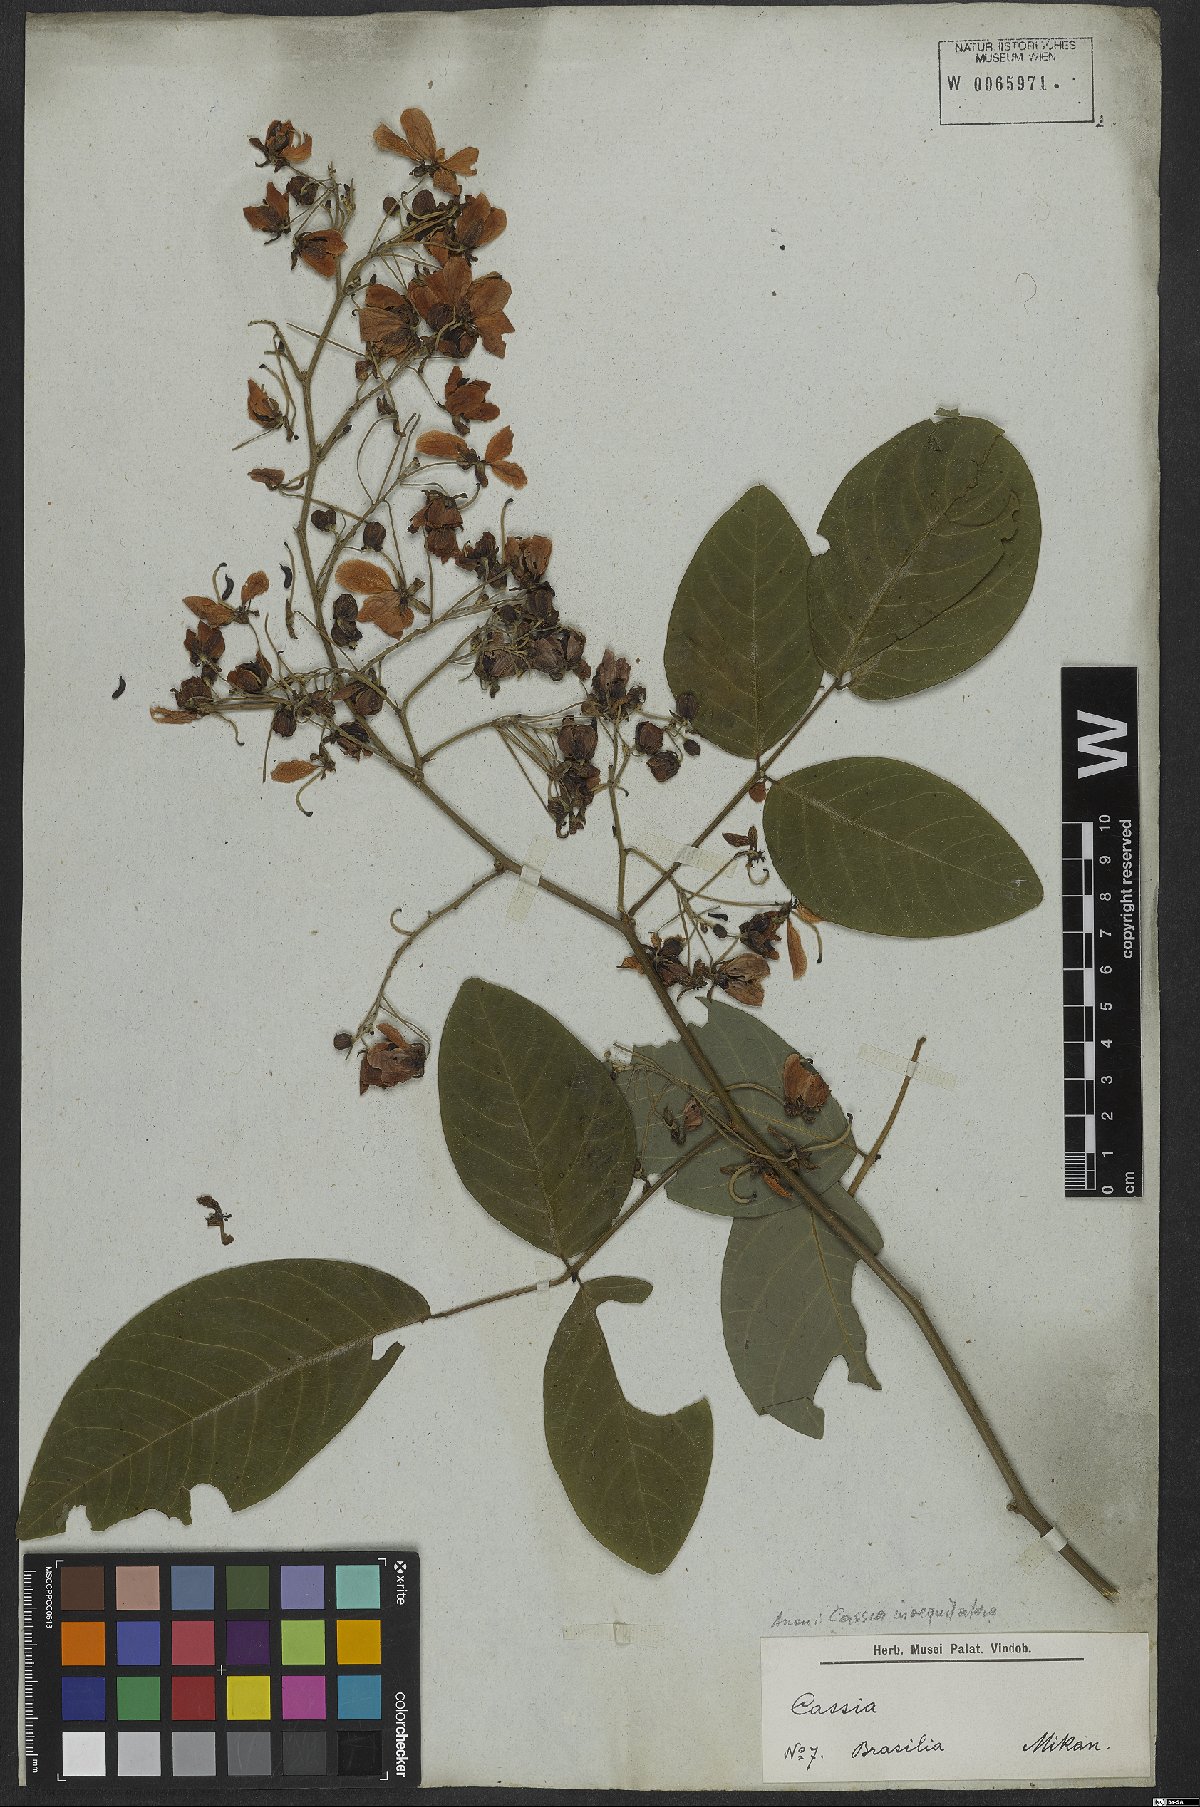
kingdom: Plantae
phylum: Tracheophyta
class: Magnoliopsida
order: Fabales
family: Fabaceae
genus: Senna
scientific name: Senna bacillaris
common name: West indian showertree
